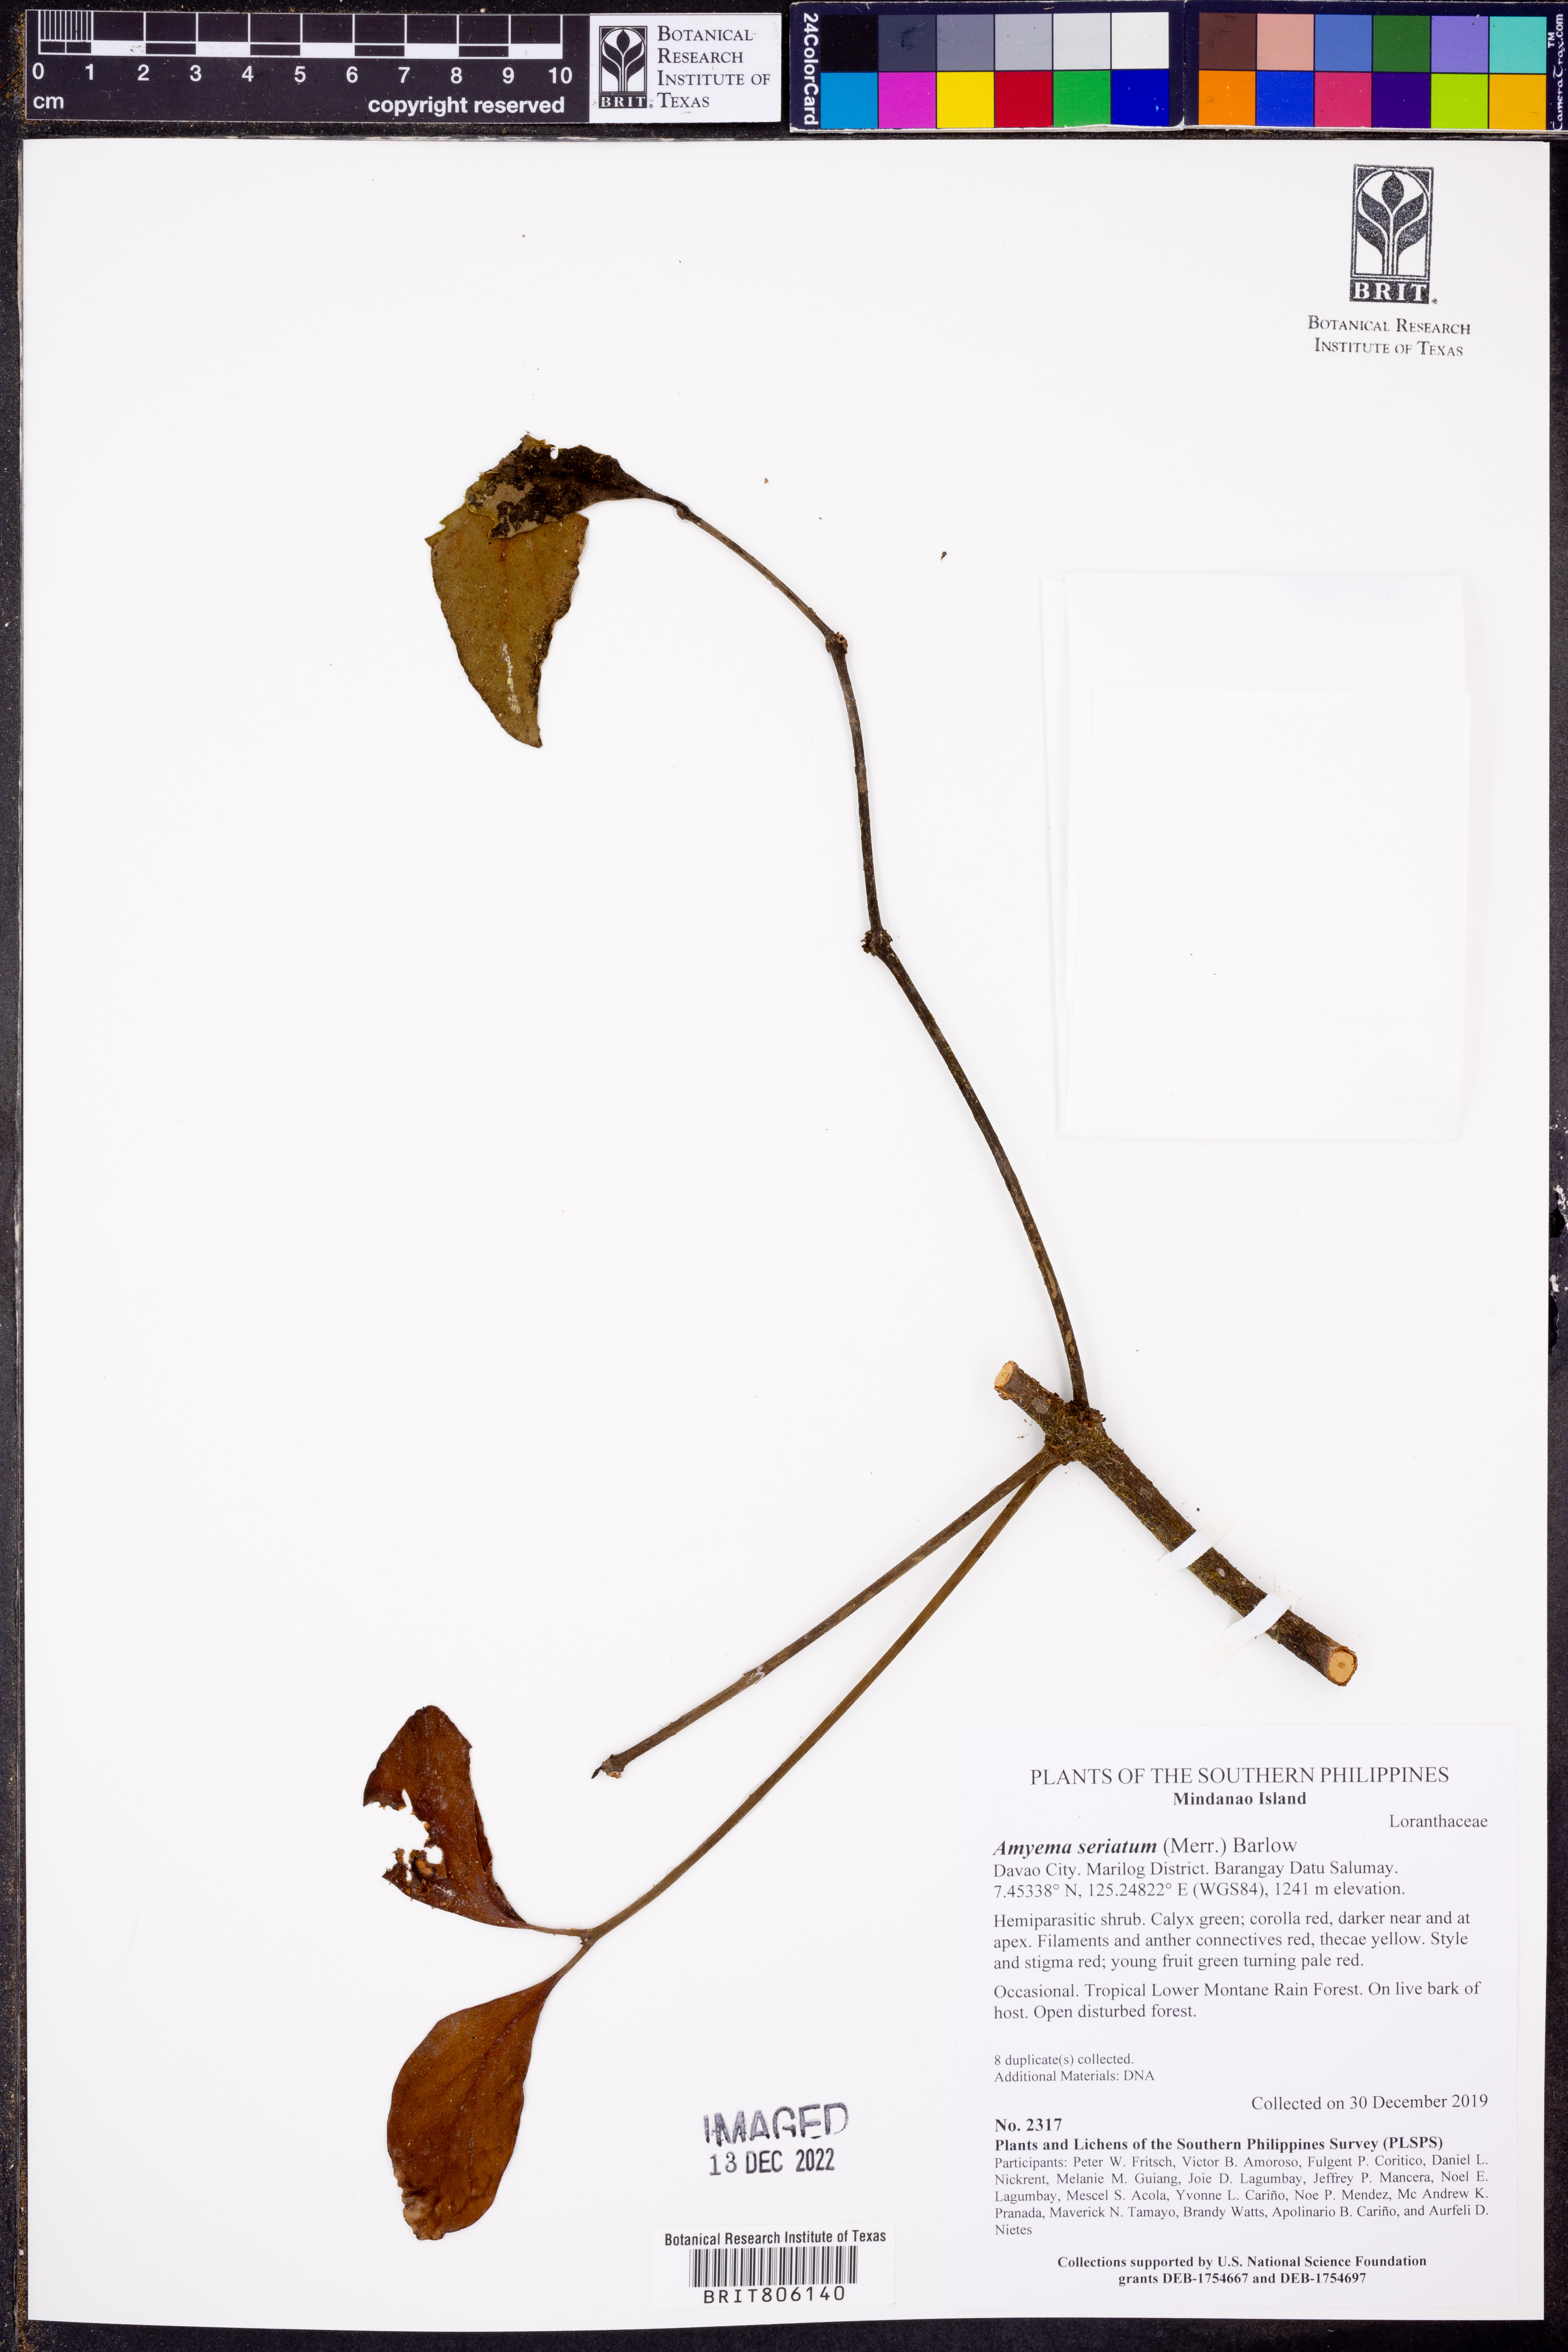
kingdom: Plantae
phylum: Tracheophyta
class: Magnoliopsida
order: Santalales
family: Loranthaceae
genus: Amyema
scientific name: Amyema seriata
